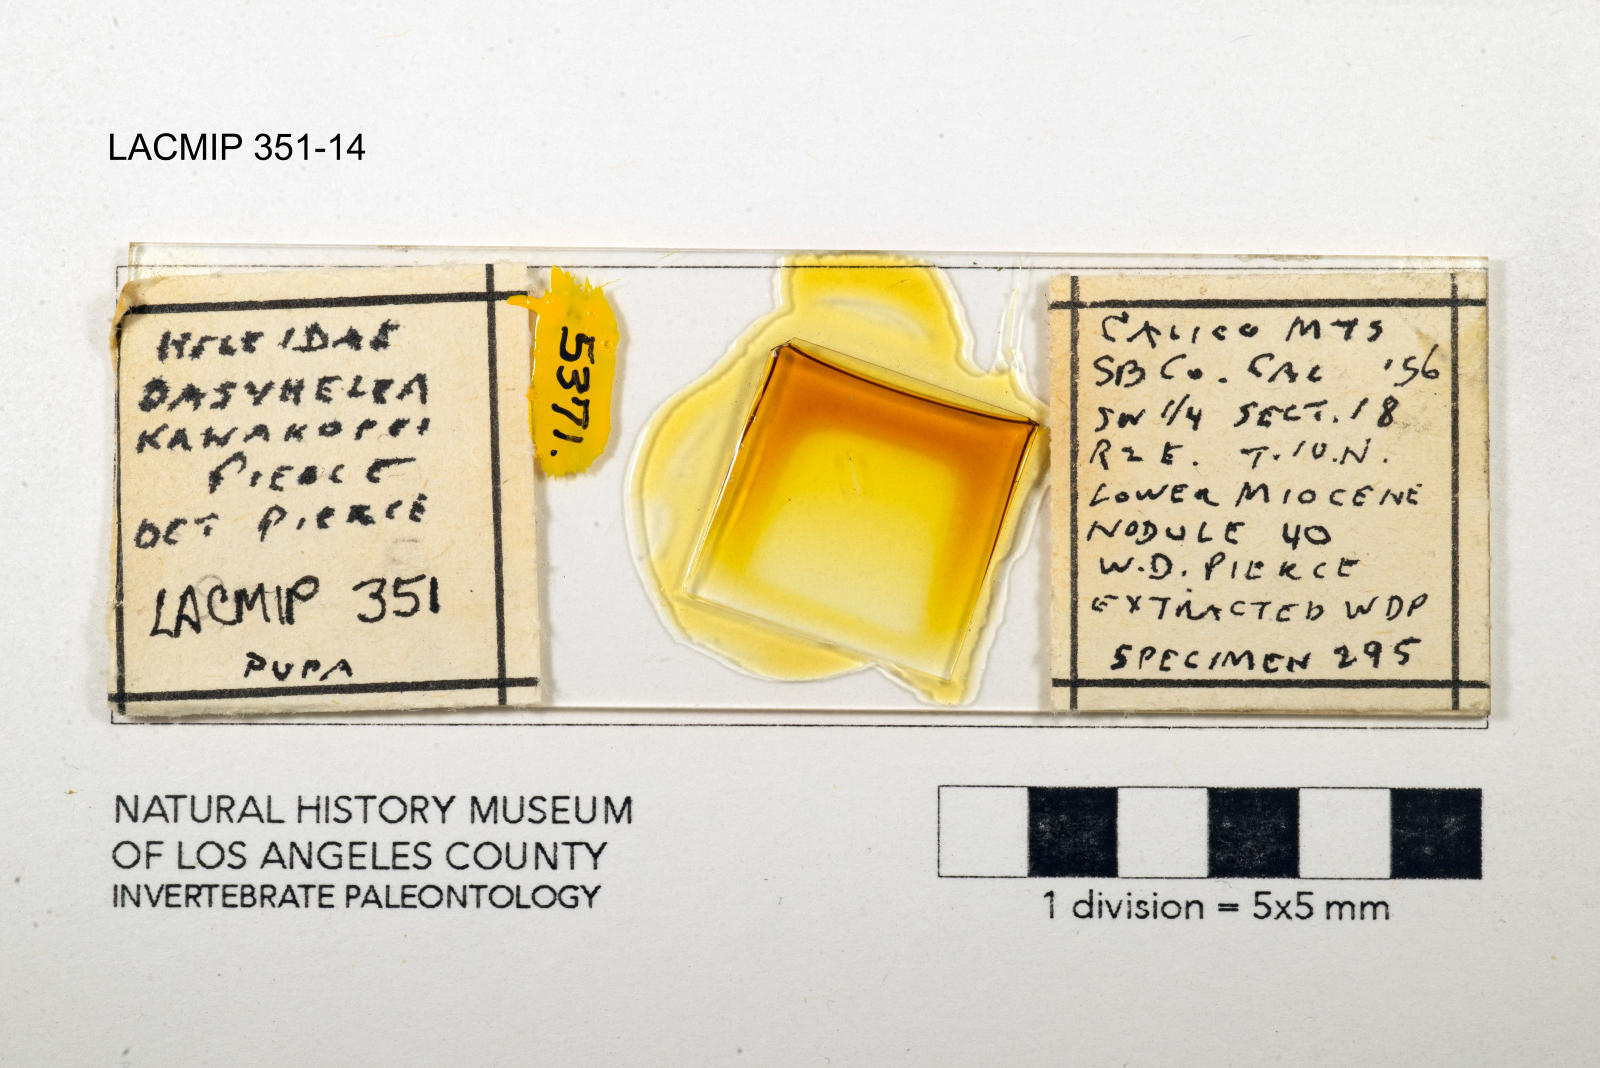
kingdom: Animalia
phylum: Arthropoda
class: Insecta
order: Diptera
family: Ceratopogonidae
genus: Dasyhelea
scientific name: Dasyhelea kanakoffi
